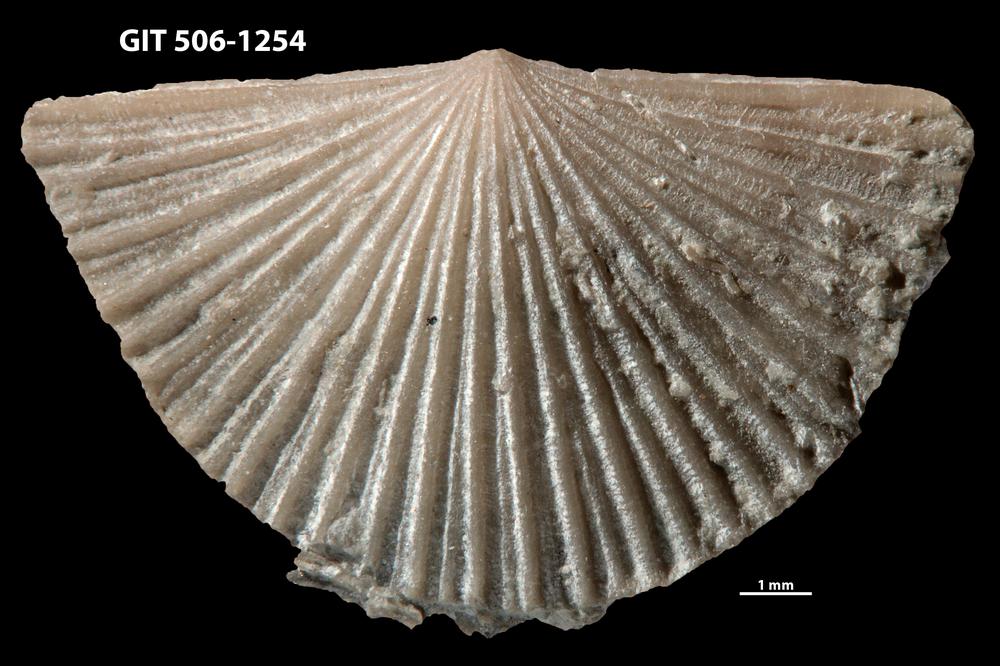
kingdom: Animalia
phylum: Brachiopoda
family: Chilidiopsidae
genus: Fardenia
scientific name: Fardenia Orthis applanata
